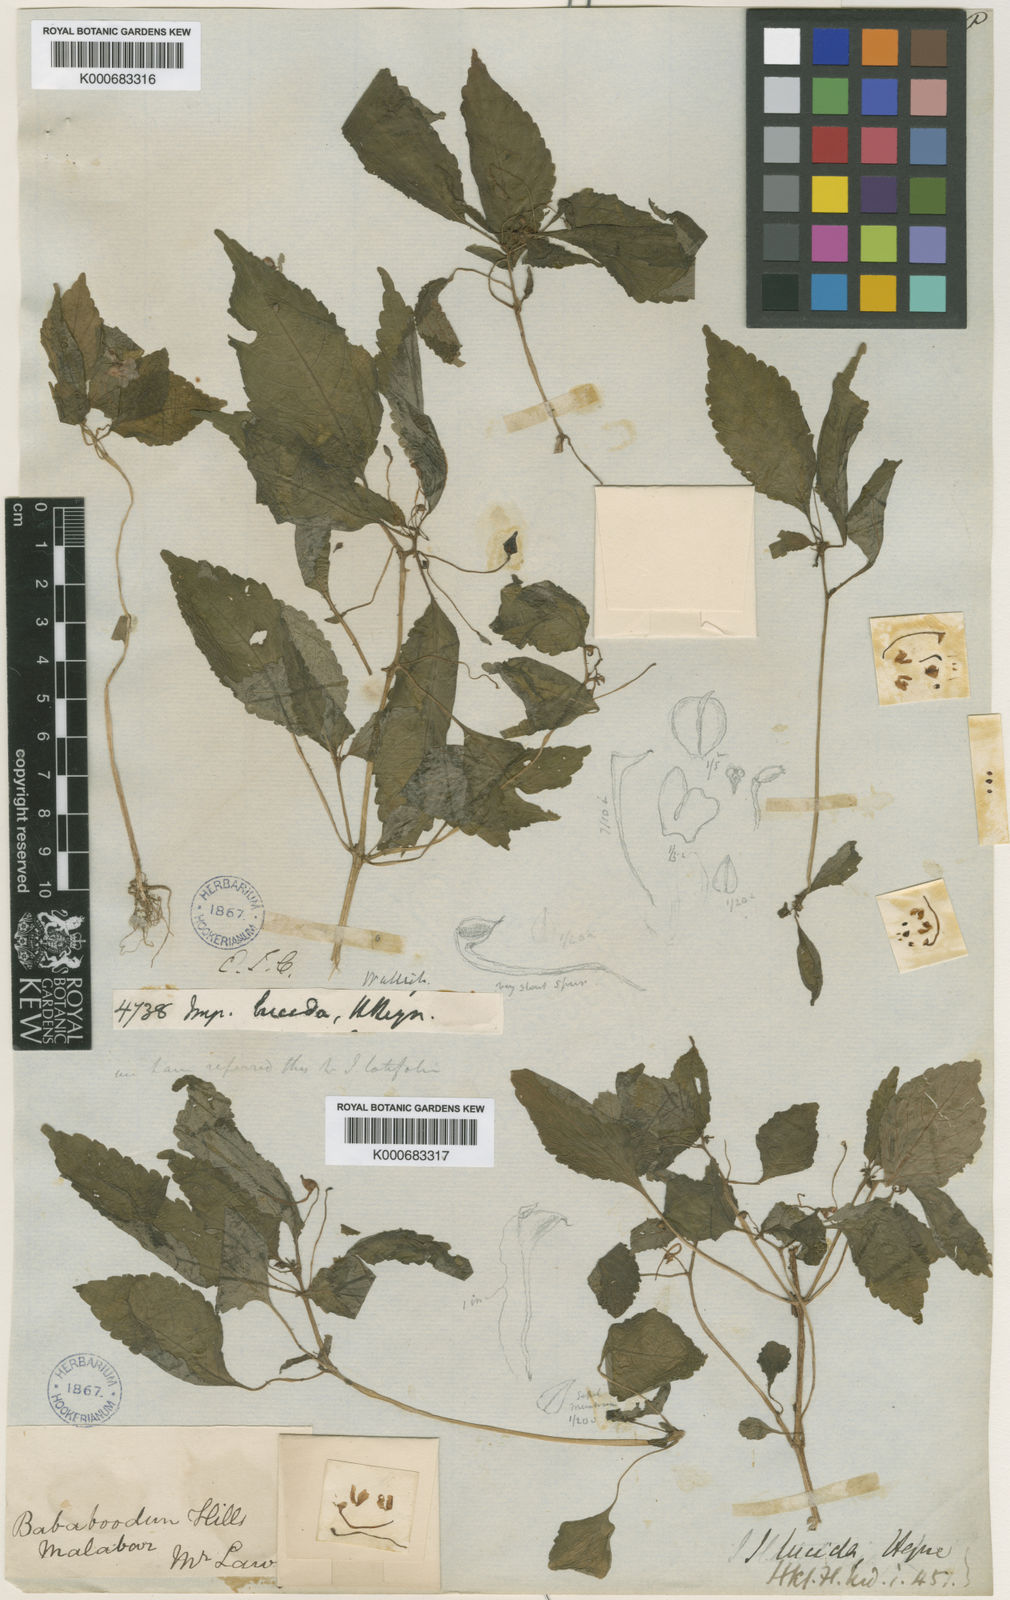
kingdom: Plantae
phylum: Tracheophyta
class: Magnoliopsida
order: Ericales
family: Balsaminaceae
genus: Impatiens
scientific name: Impatiens
